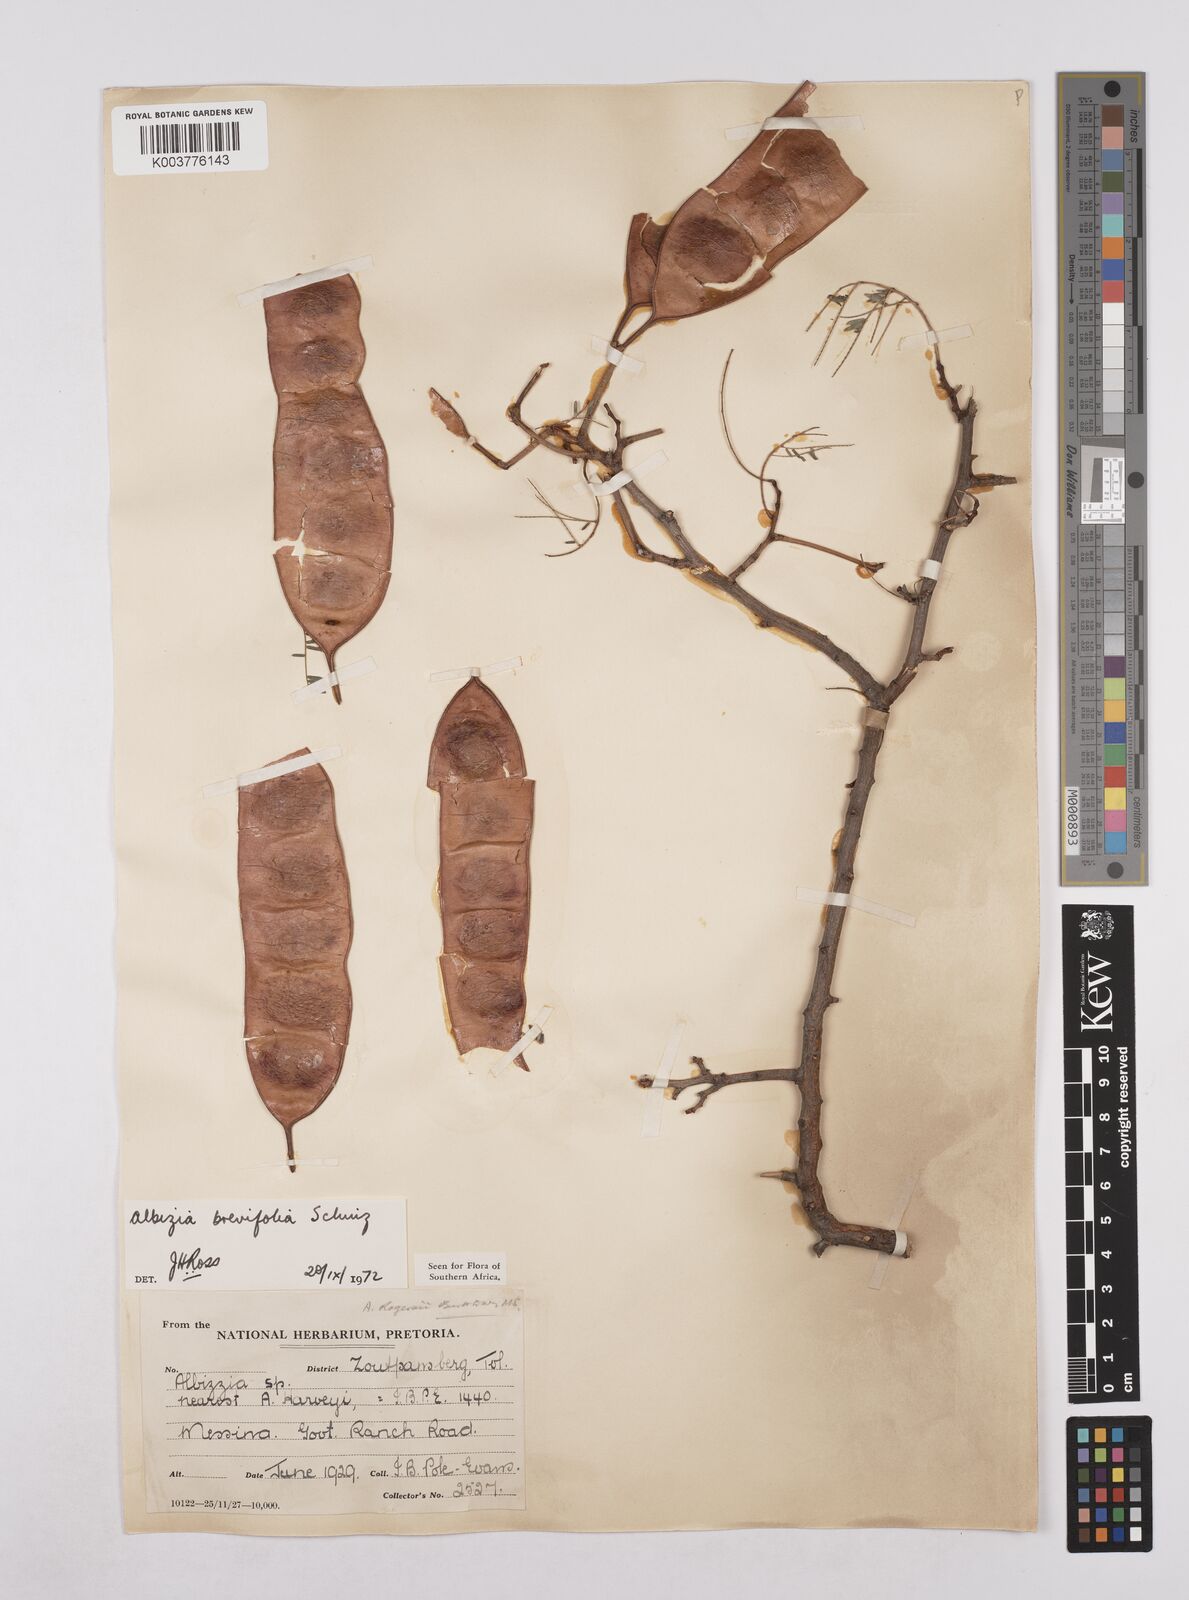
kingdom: Plantae
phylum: Tracheophyta
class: Magnoliopsida
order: Fabales
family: Fabaceae
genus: Albizia
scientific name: Albizia brevifolia
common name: Rock false-thorn
